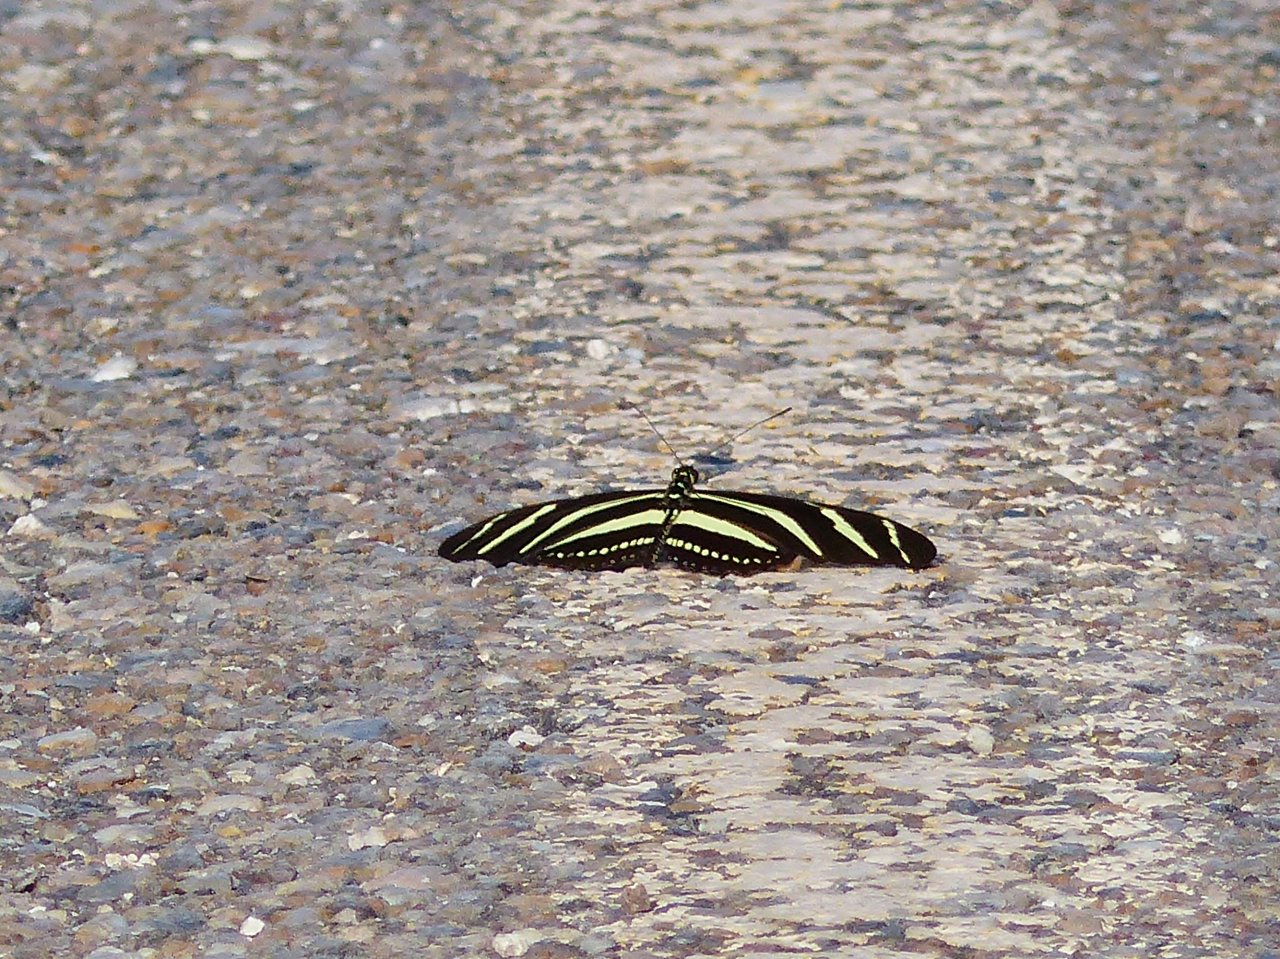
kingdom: Animalia
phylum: Arthropoda
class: Insecta
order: Lepidoptera
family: Nymphalidae
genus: Heliconius
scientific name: Heliconius charithonia
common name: Zebra Longwing
